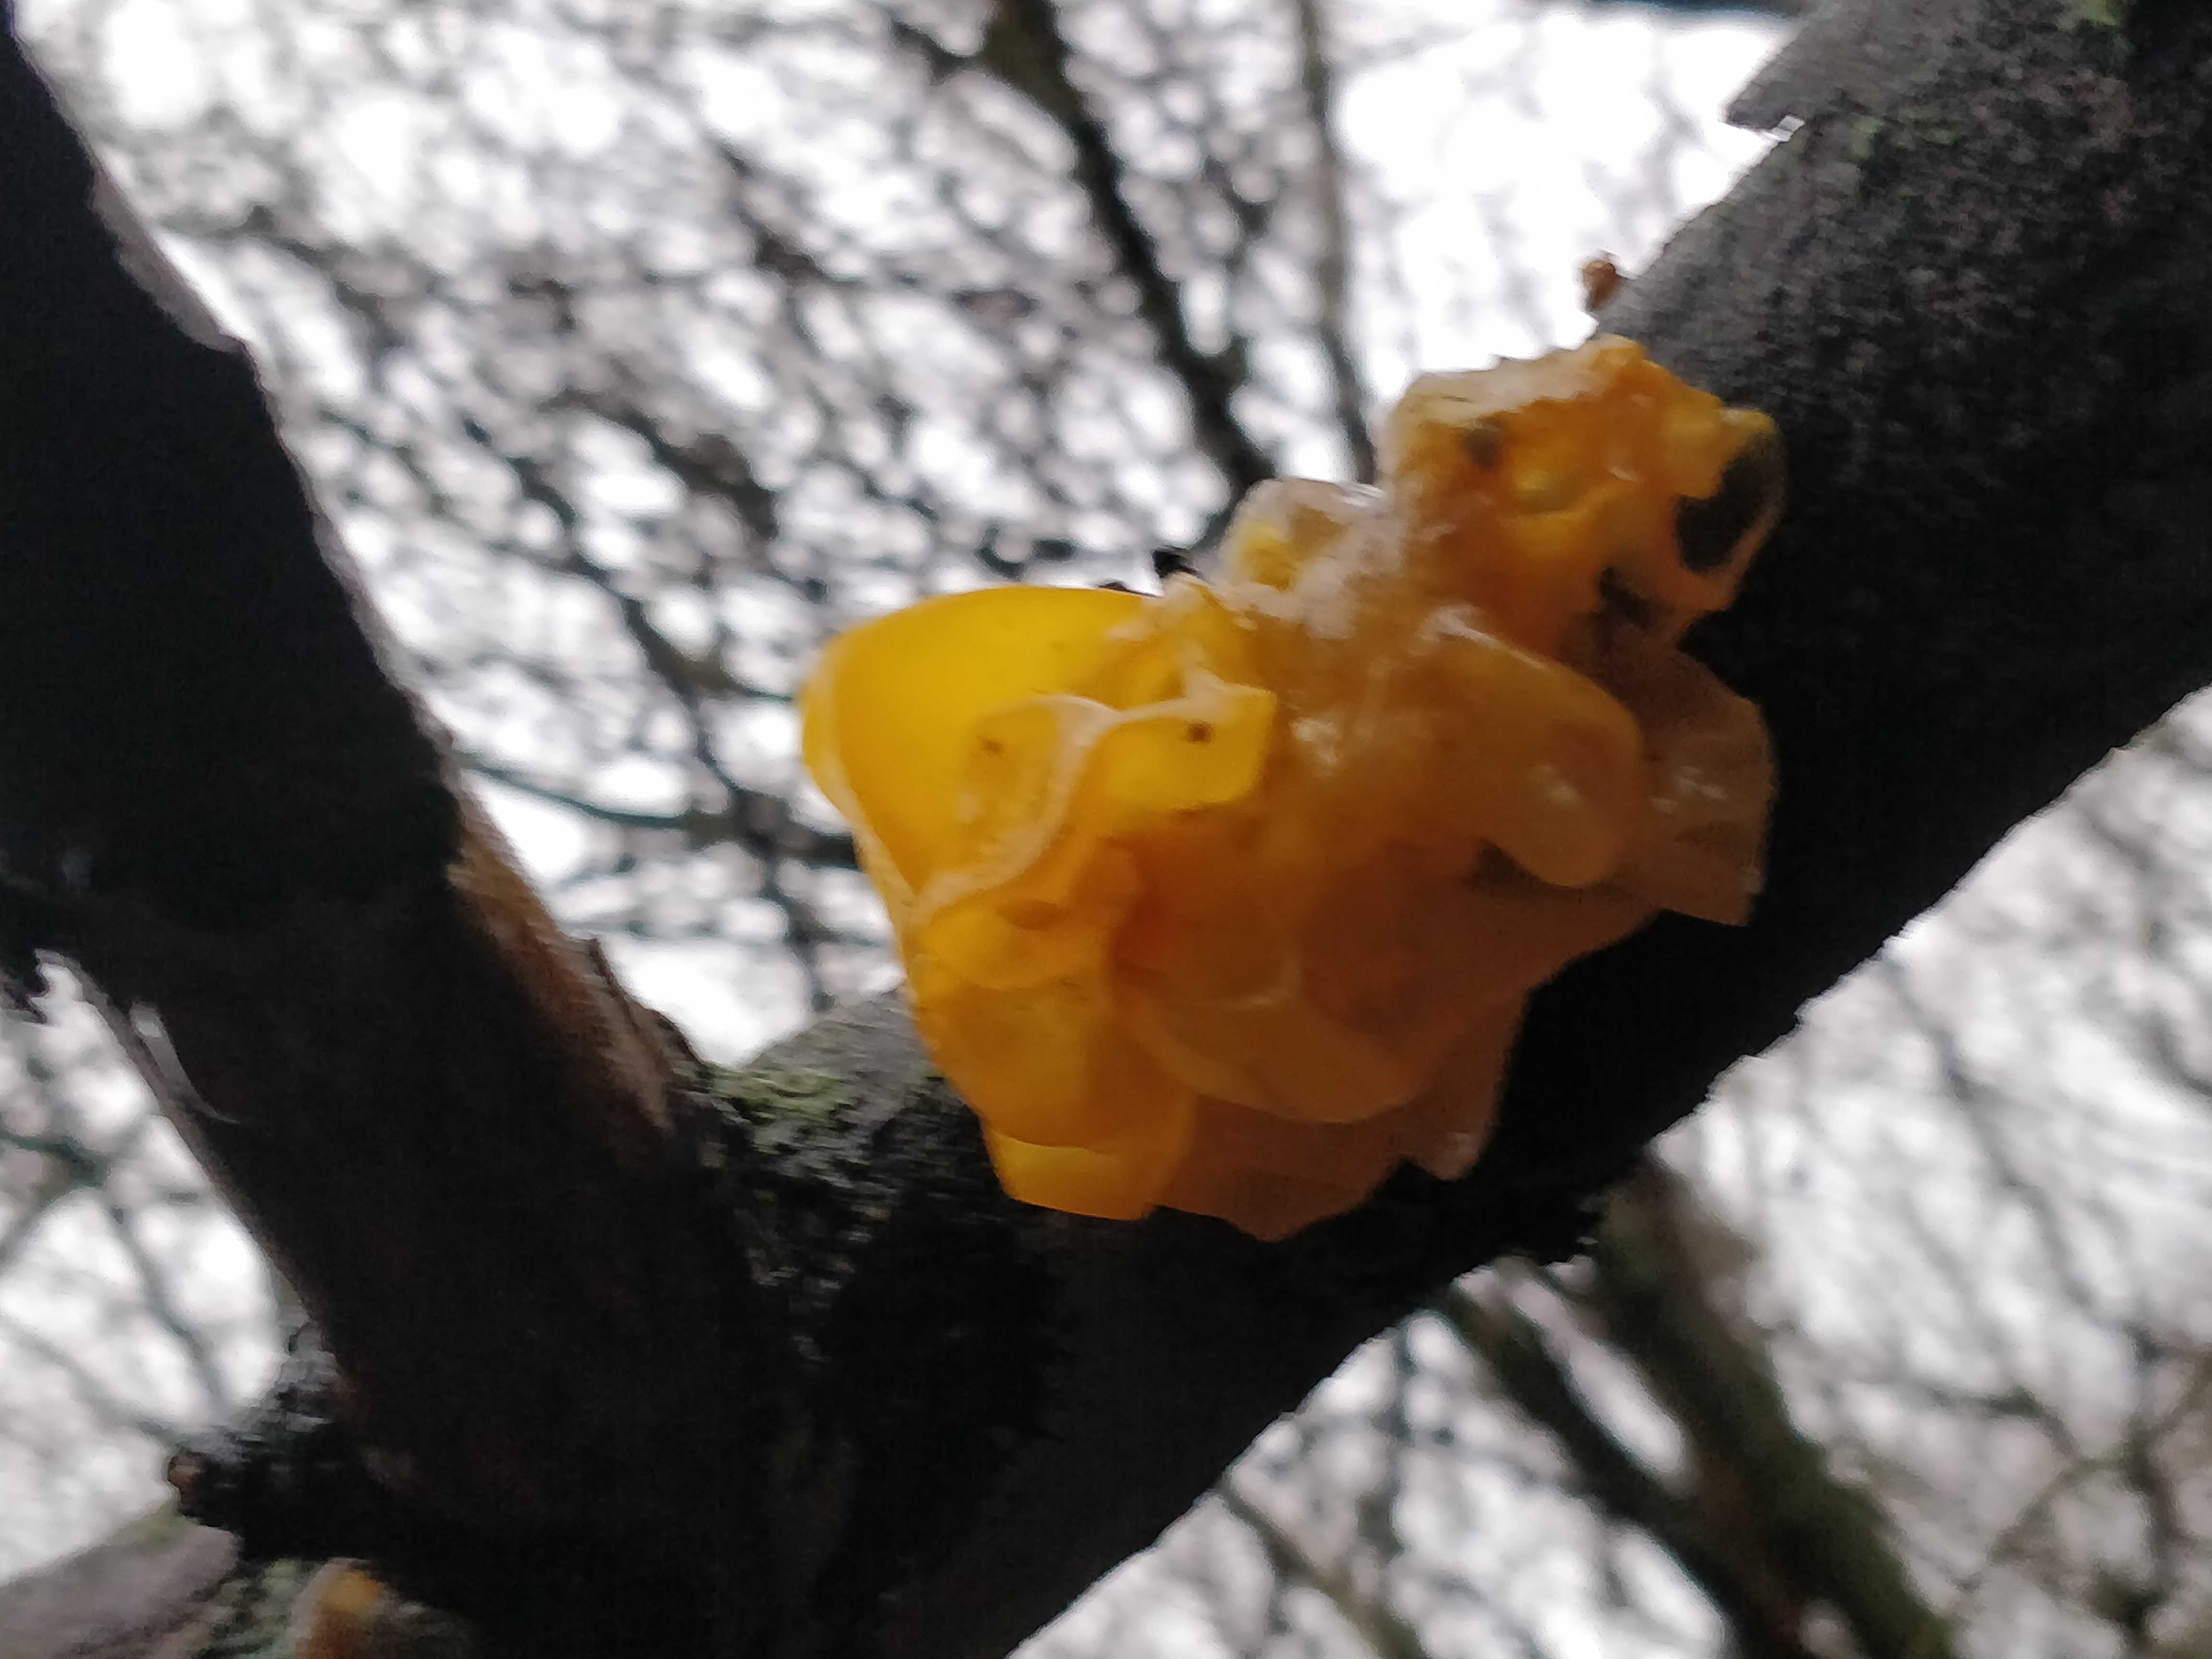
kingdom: Fungi
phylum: Basidiomycota
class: Tremellomycetes
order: Tremellales
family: Tremellaceae
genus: Tremella
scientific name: Tremella mesenterica
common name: gul bævresvamp
